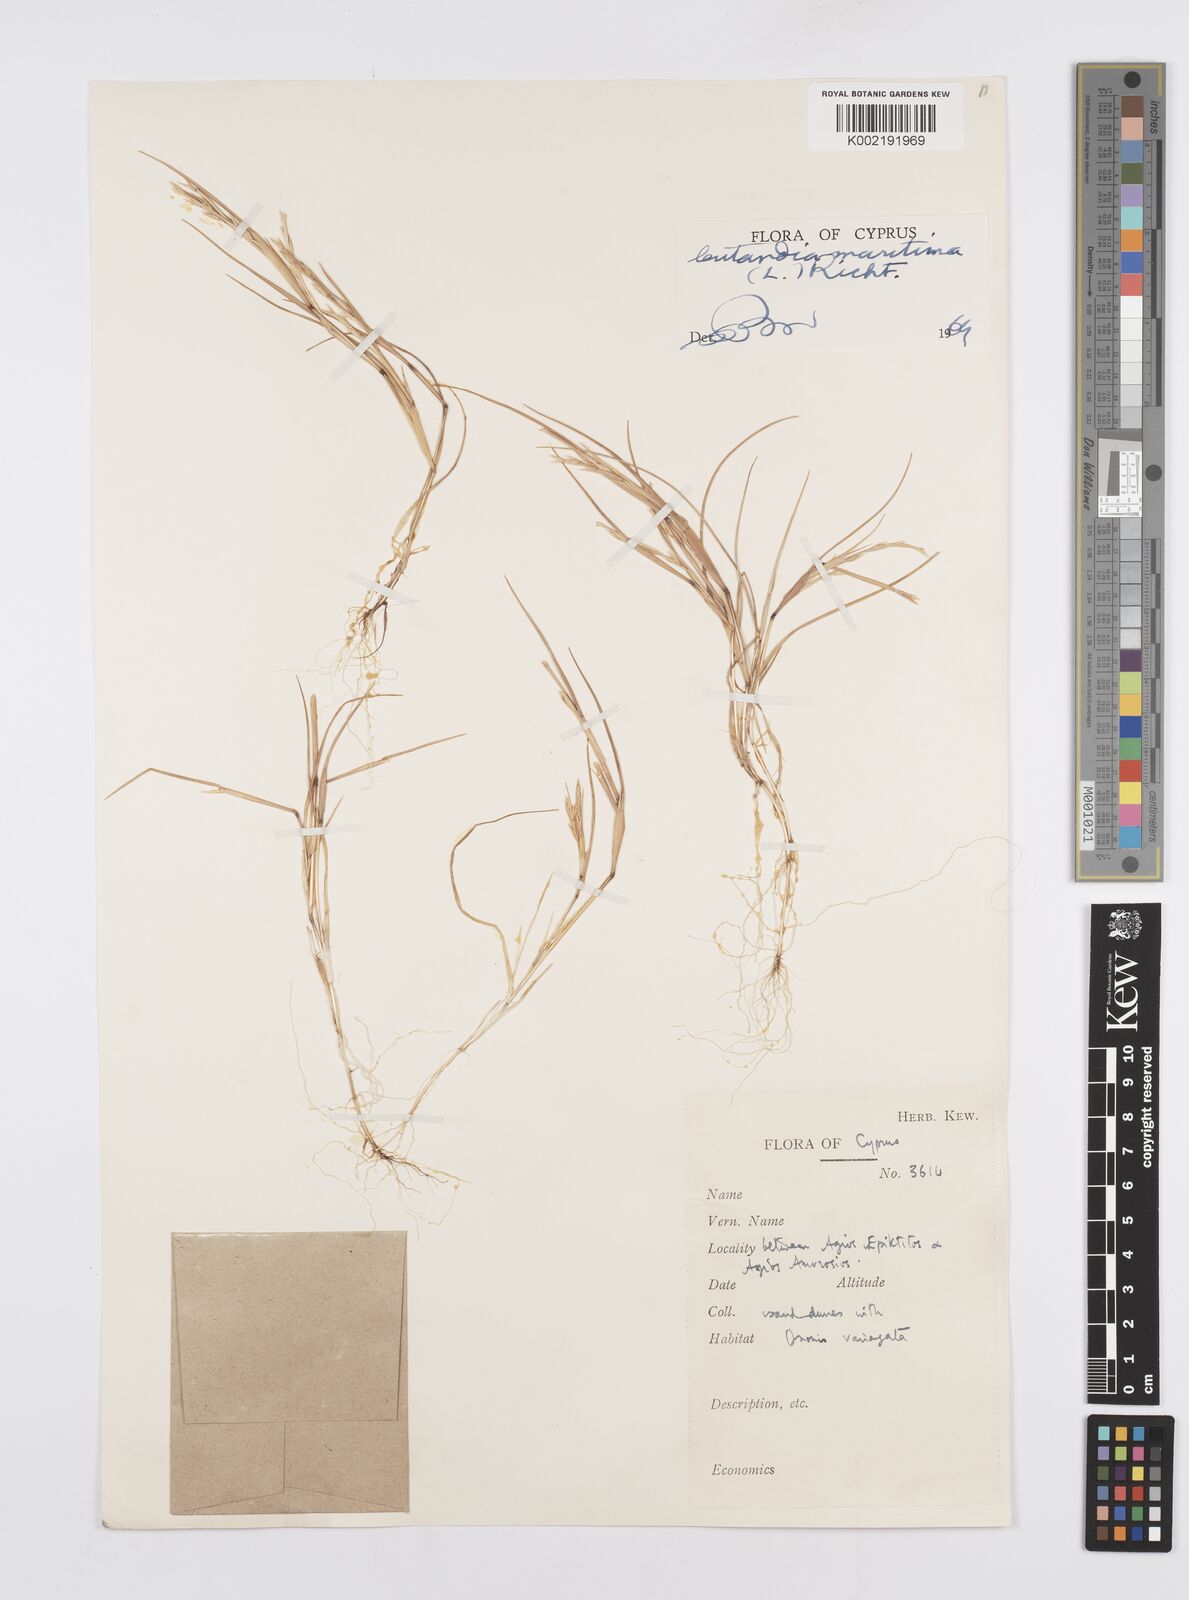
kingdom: Plantae
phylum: Tracheophyta
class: Liliopsida
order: Poales
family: Poaceae
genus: Cutandia
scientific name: Cutandia maritima
